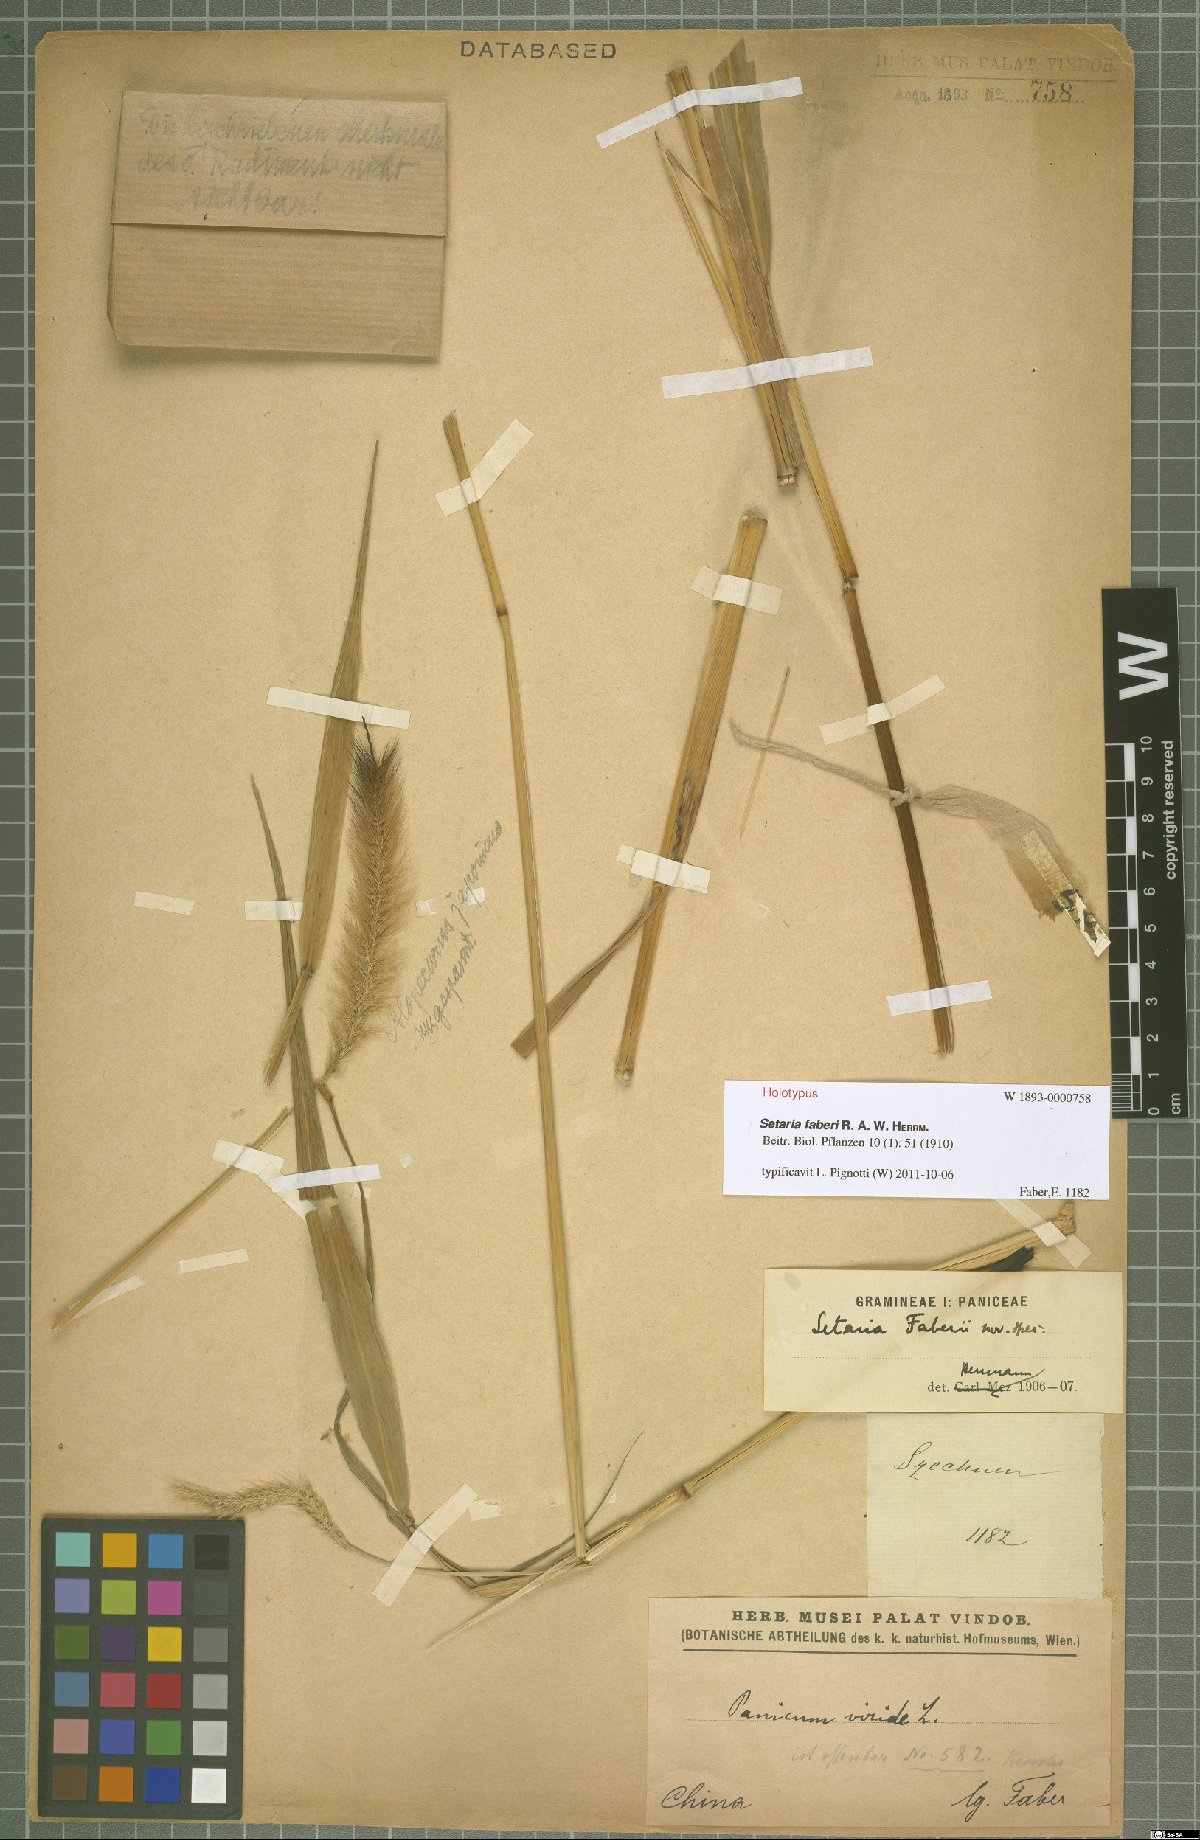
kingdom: Plantae
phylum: Tracheophyta
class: Liliopsida
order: Poales
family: Poaceae
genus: Setaria
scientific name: Setaria faberi
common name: Nodding bristle-grass
